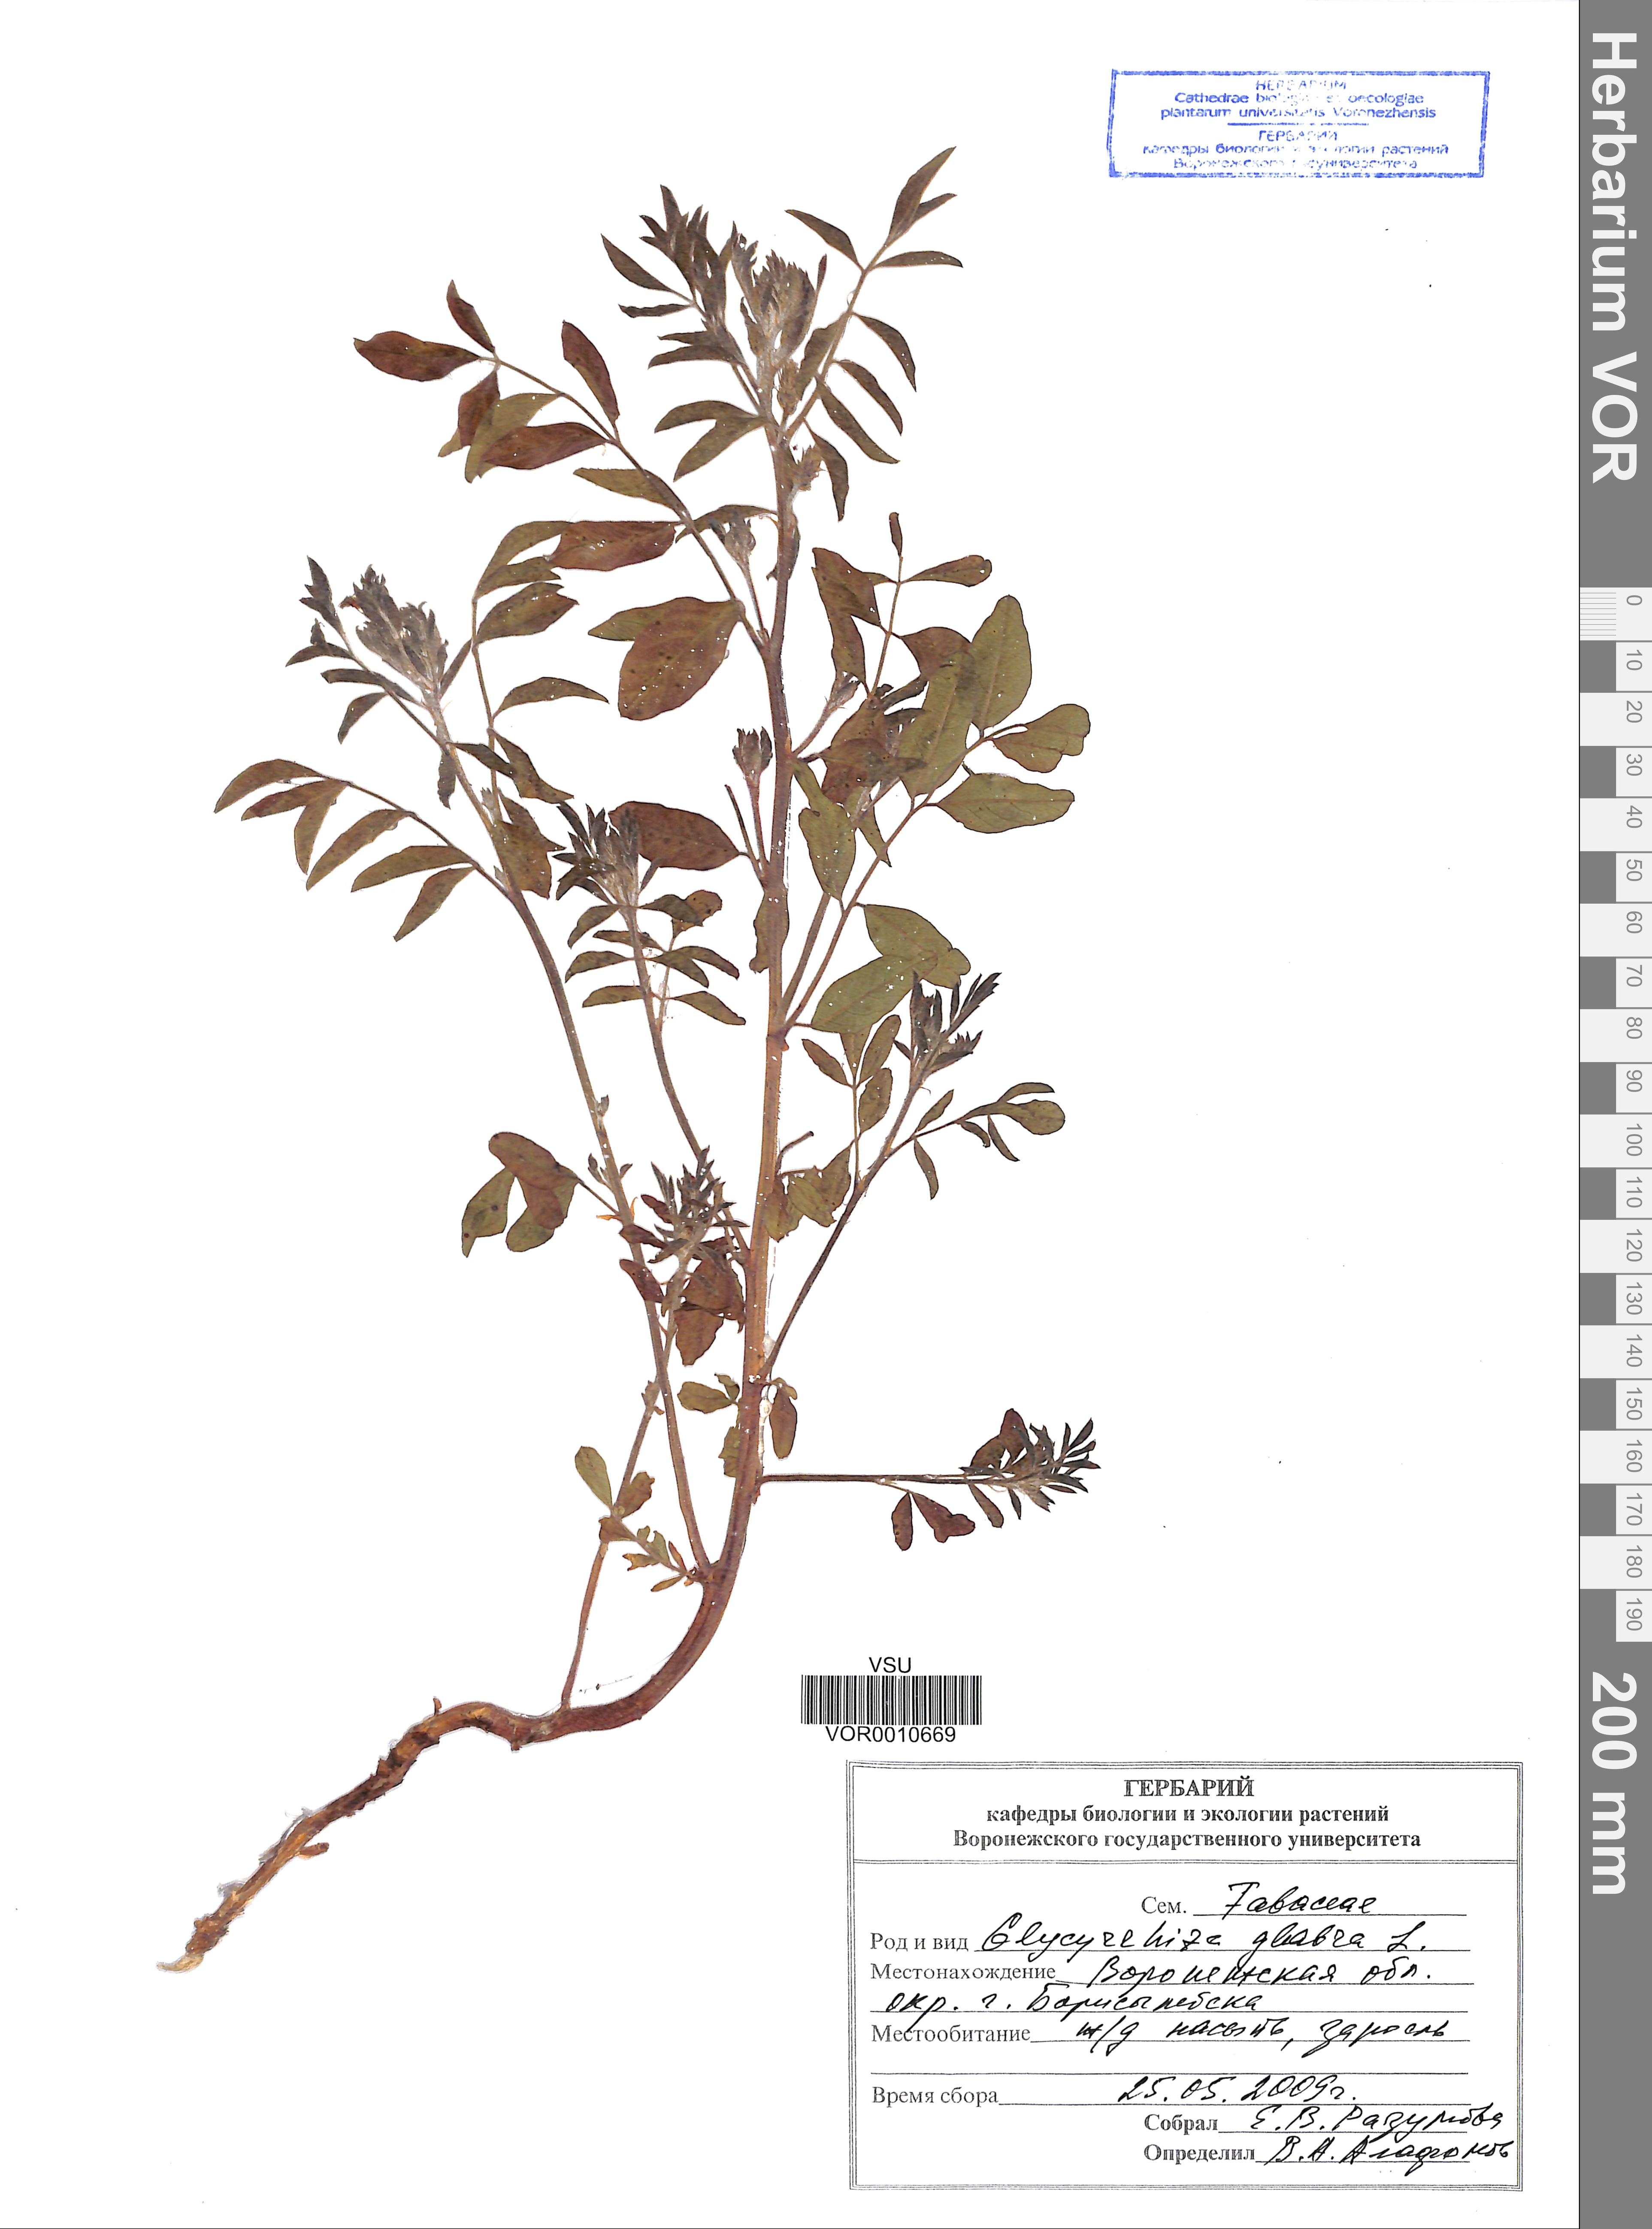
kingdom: Plantae
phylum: Tracheophyta
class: Magnoliopsida
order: Fabales
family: Fabaceae
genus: Glycyrrhiza
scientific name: Glycyrrhiza glabra
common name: Liquorice
